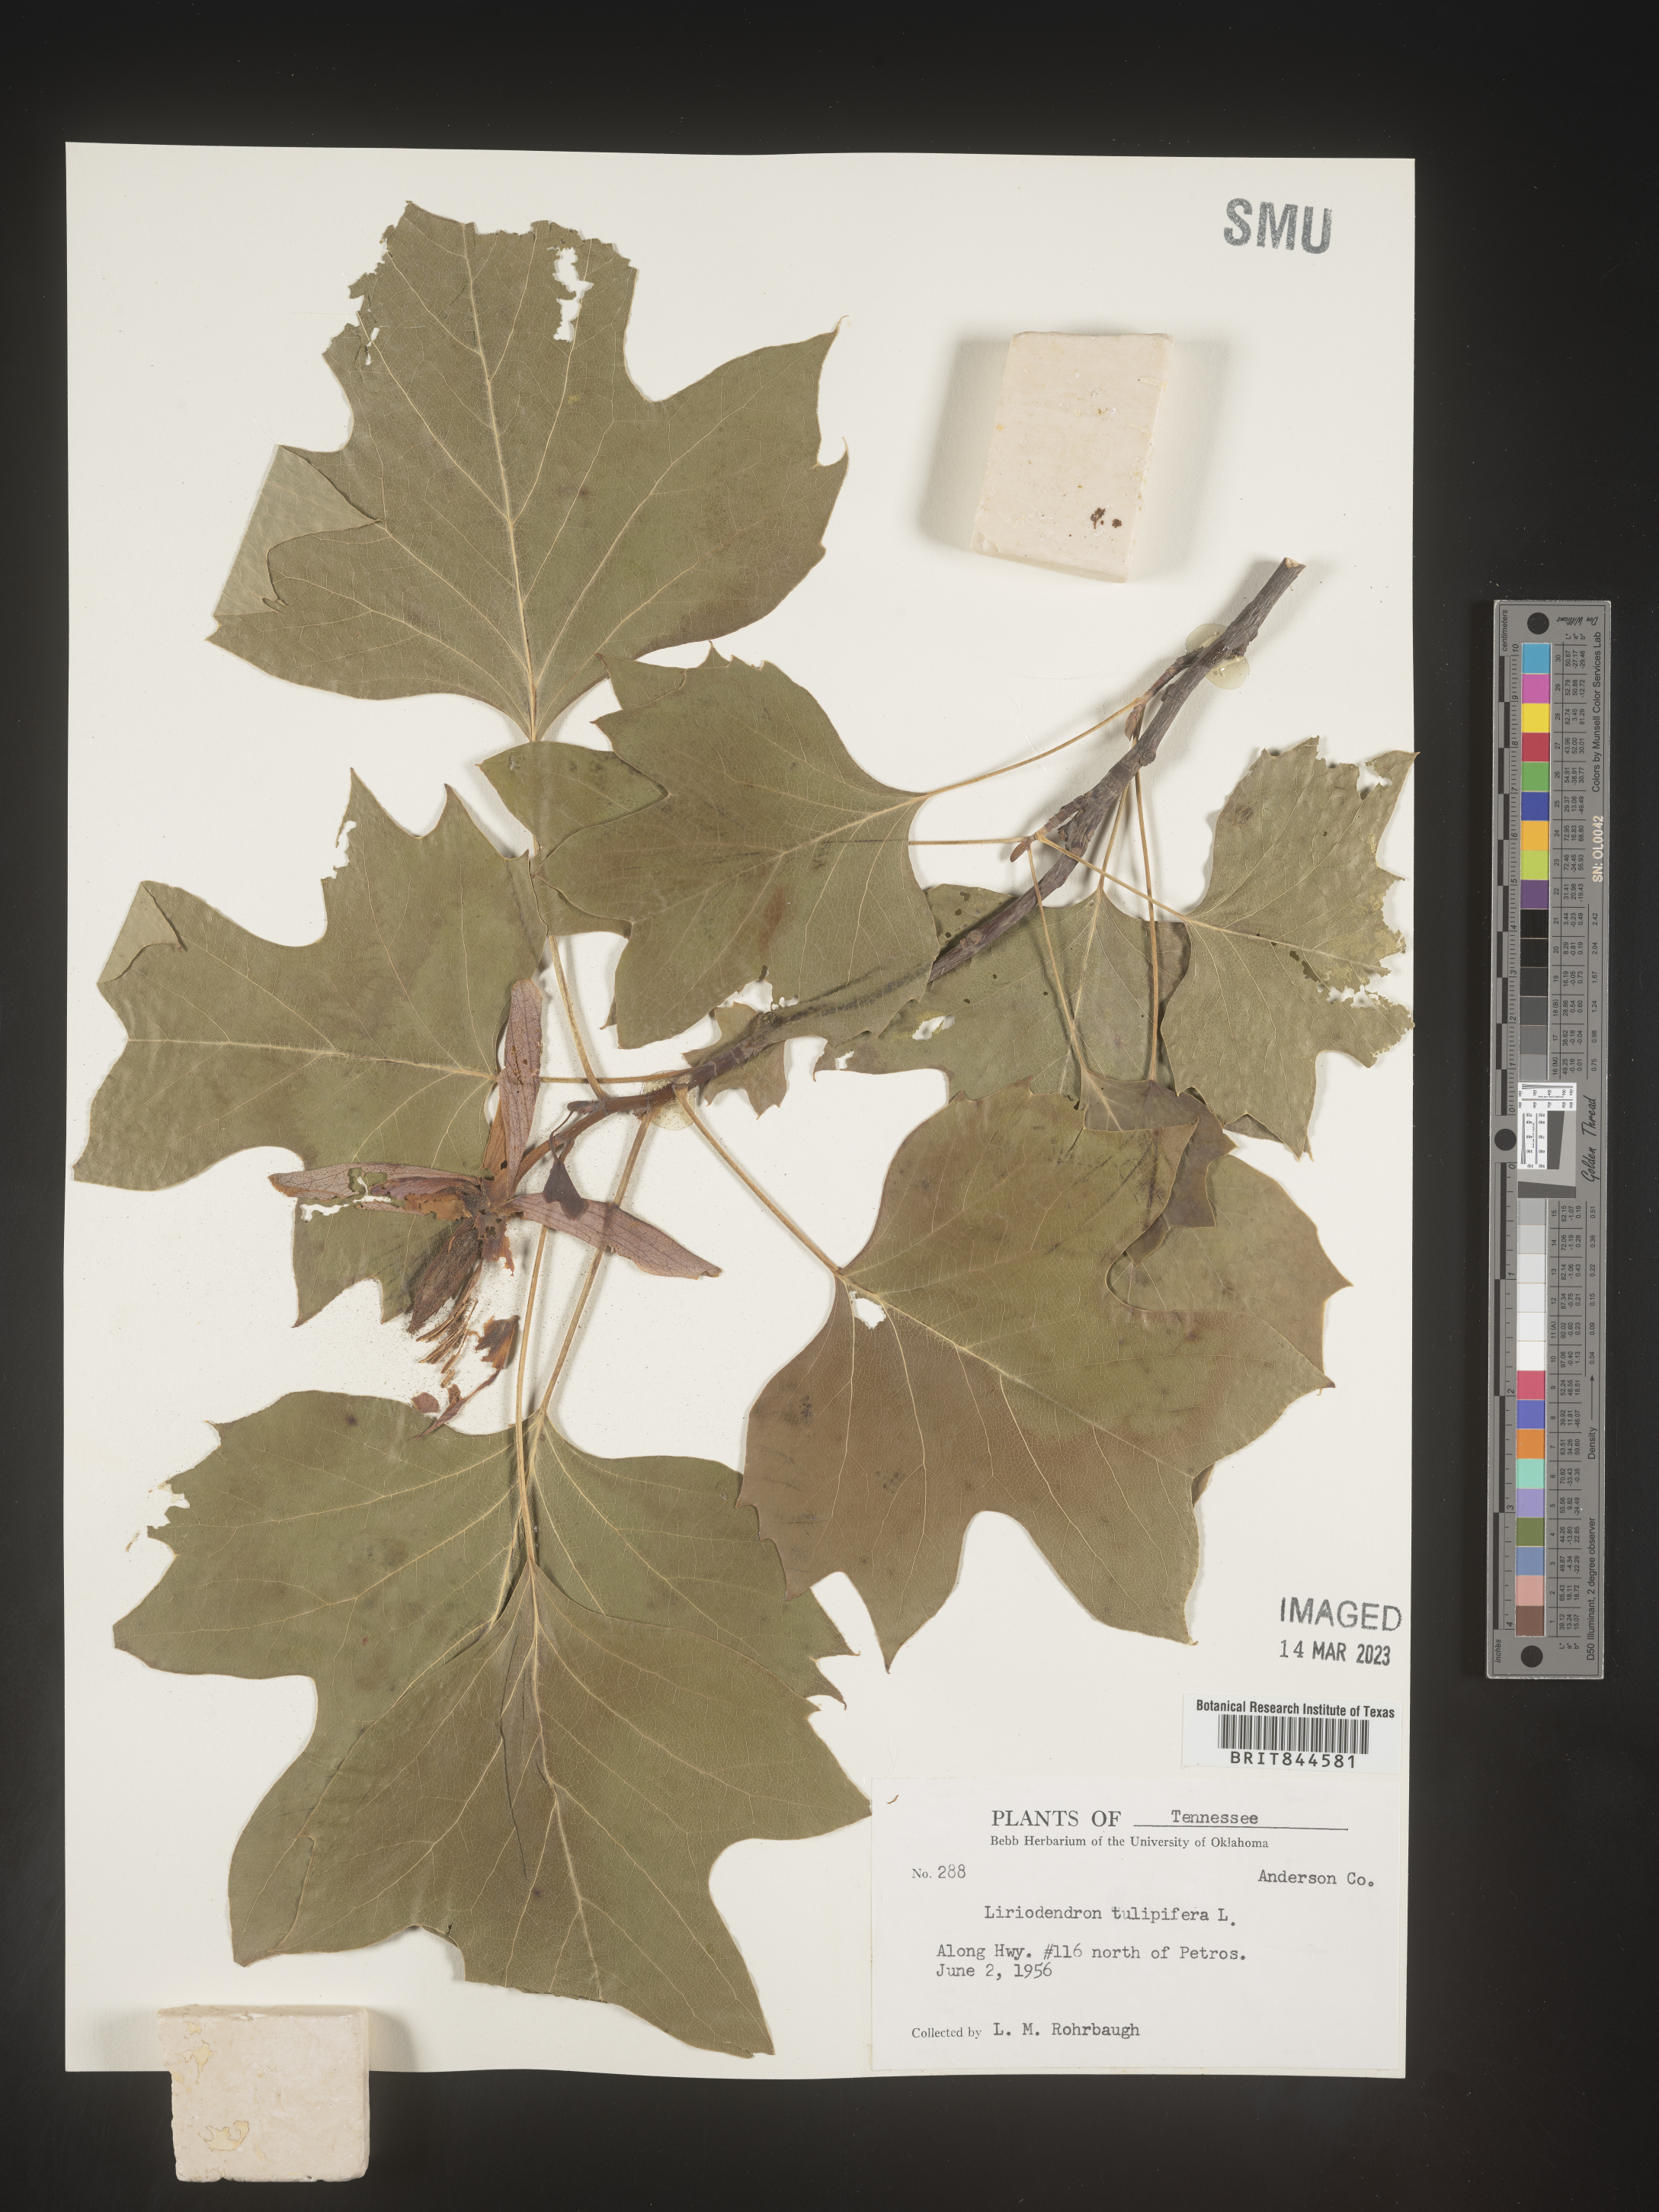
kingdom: Plantae
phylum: Tracheophyta
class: Magnoliopsida
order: Magnoliales
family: Magnoliaceae
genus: Liriodendron
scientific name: Liriodendron tulipifera
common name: Tulip tree
